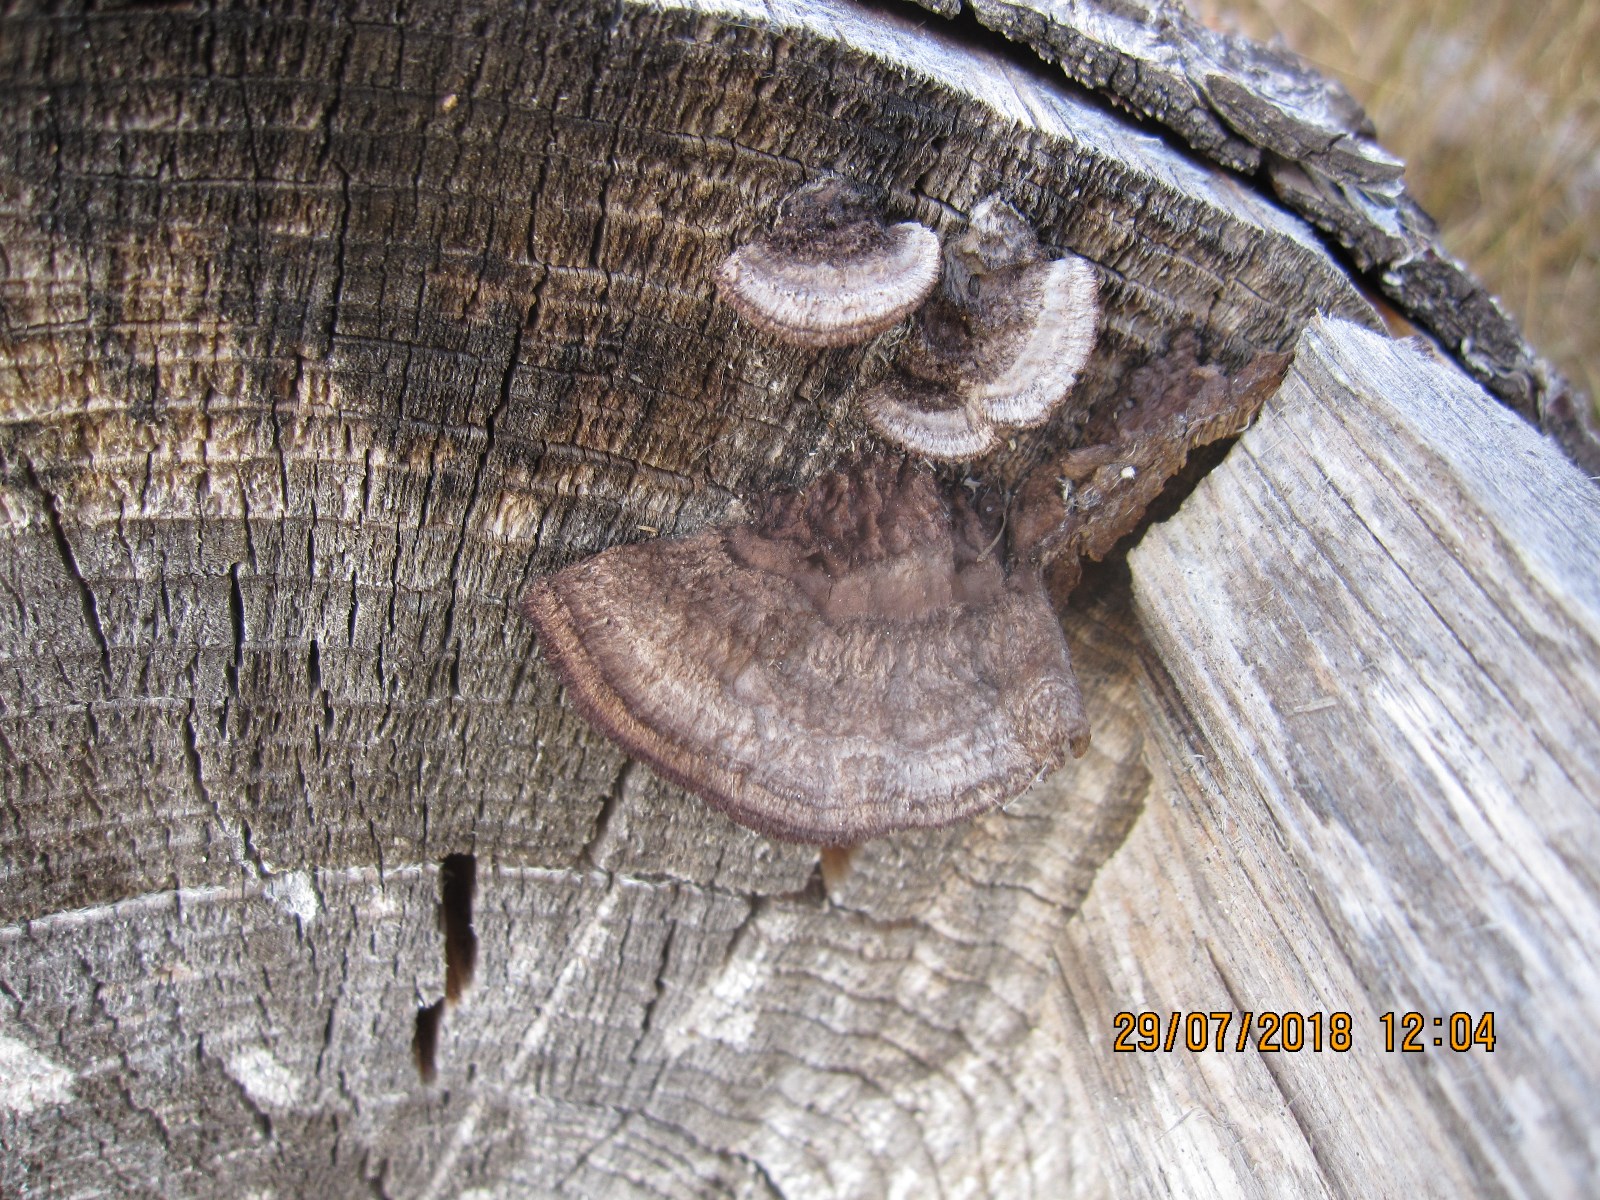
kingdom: Fungi
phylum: Basidiomycota
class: Agaricomycetes
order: Gloeophyllales
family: Gloeophyllaceae
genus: Gloeophyllum
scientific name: Gloeophyllum sepiarium
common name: fyrre-korkhat
